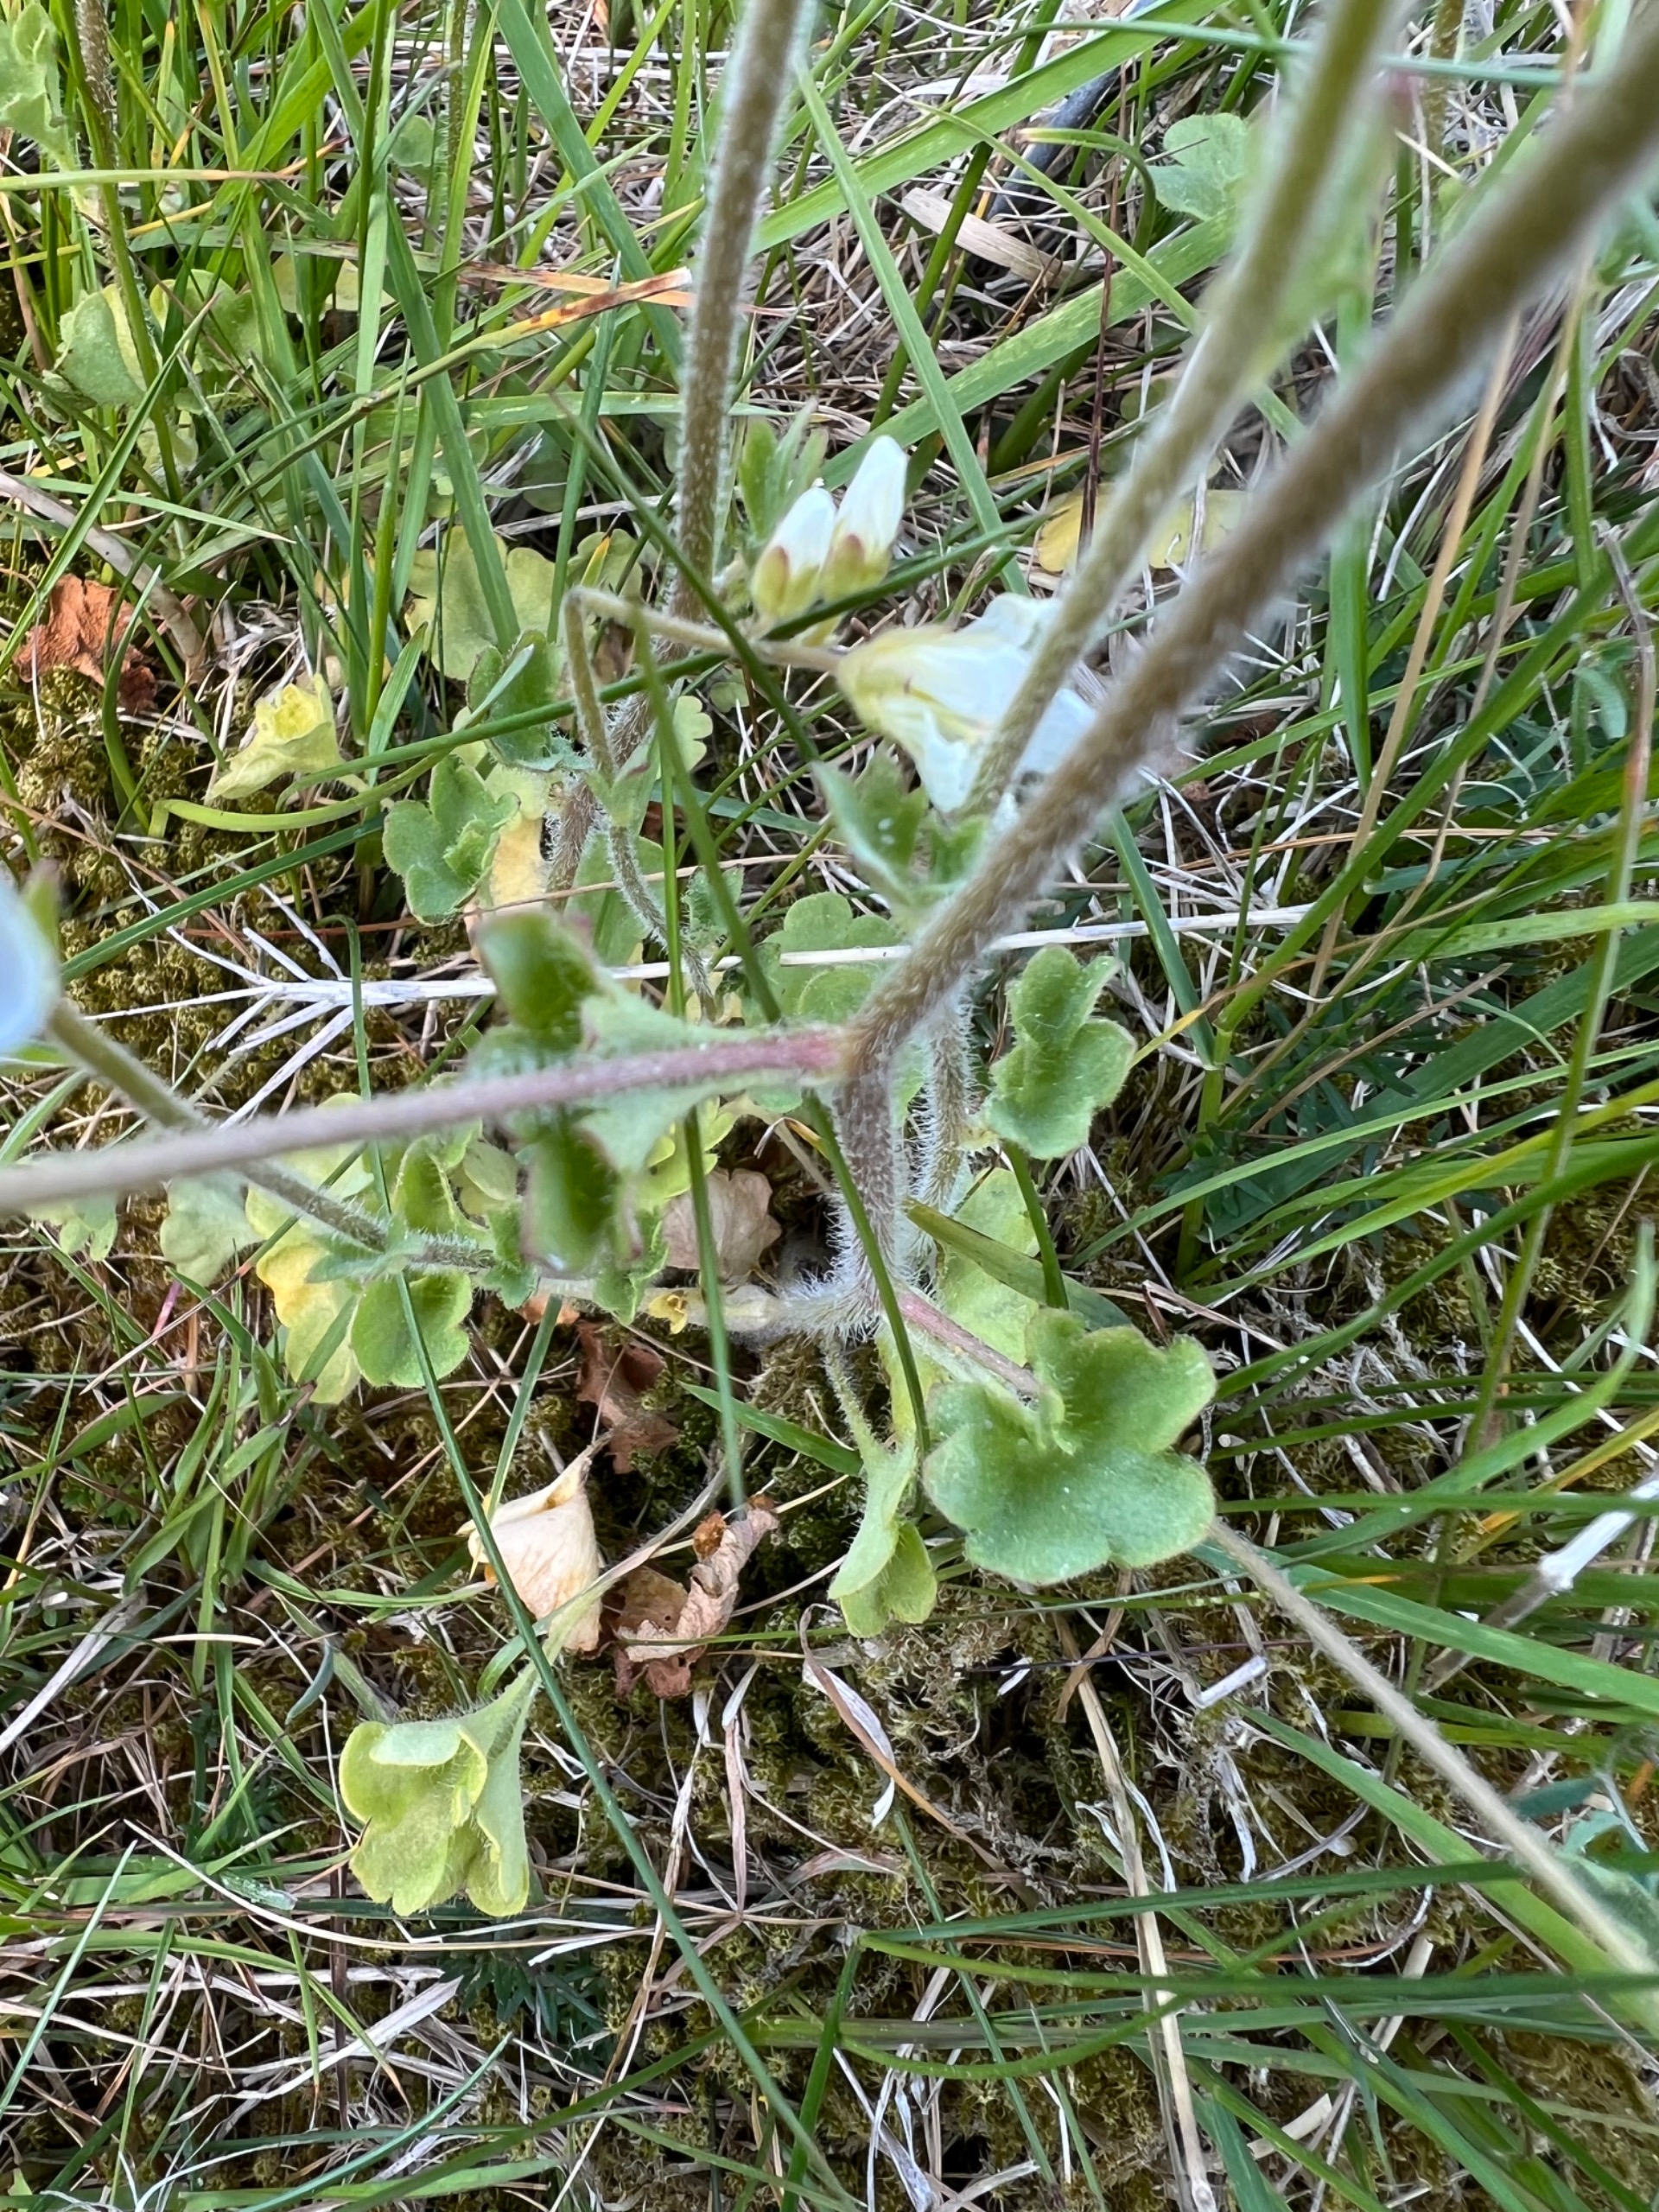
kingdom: Plantae
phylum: Tracheophyta
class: Magnoliopsida
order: Saxifragales
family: Saxifragaceae
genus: Saxifraga
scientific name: Saxifraga granulata
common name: Kornet stenbræk
